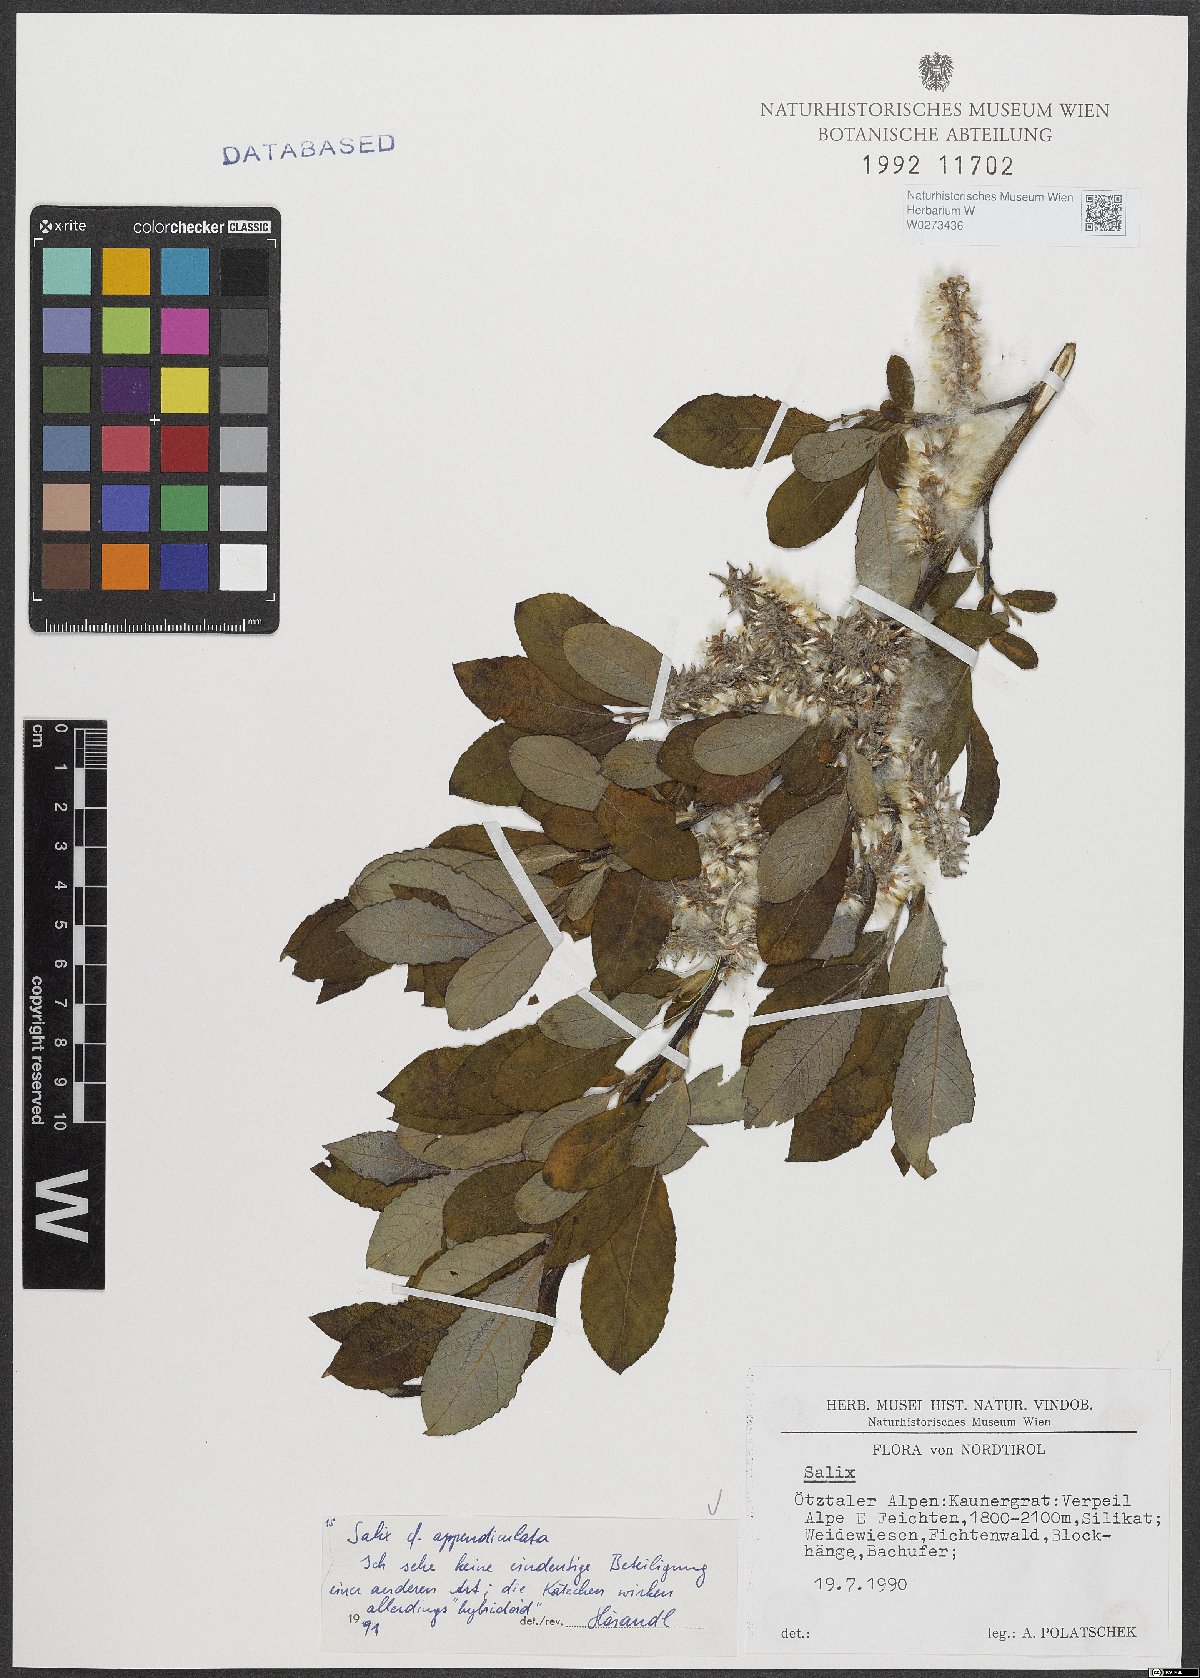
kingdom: Plantae
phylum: Tracheophyta
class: Magnoliopsida
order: Malpighiales
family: Salicaceae
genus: Salix
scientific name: Salix appendiculata
